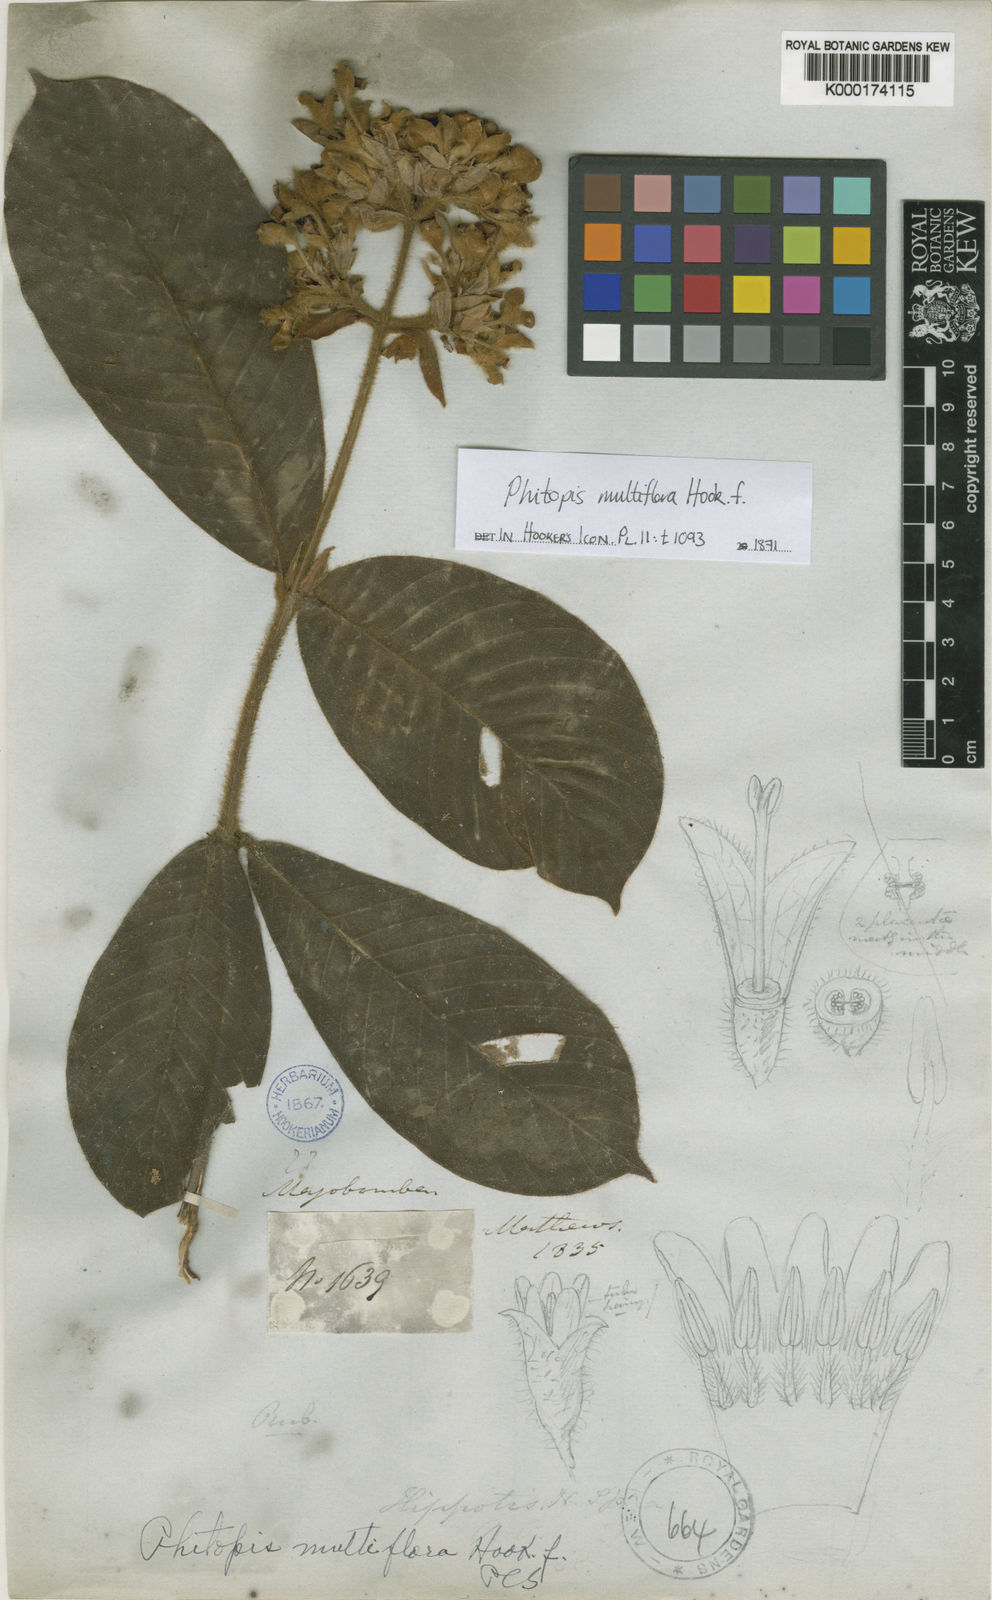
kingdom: Plantae
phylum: Tracheophyta
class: Magnoliopsida
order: Gentianales
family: Rubiaceae
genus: Schizocalyx
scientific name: Schizocalyx multiflorus
